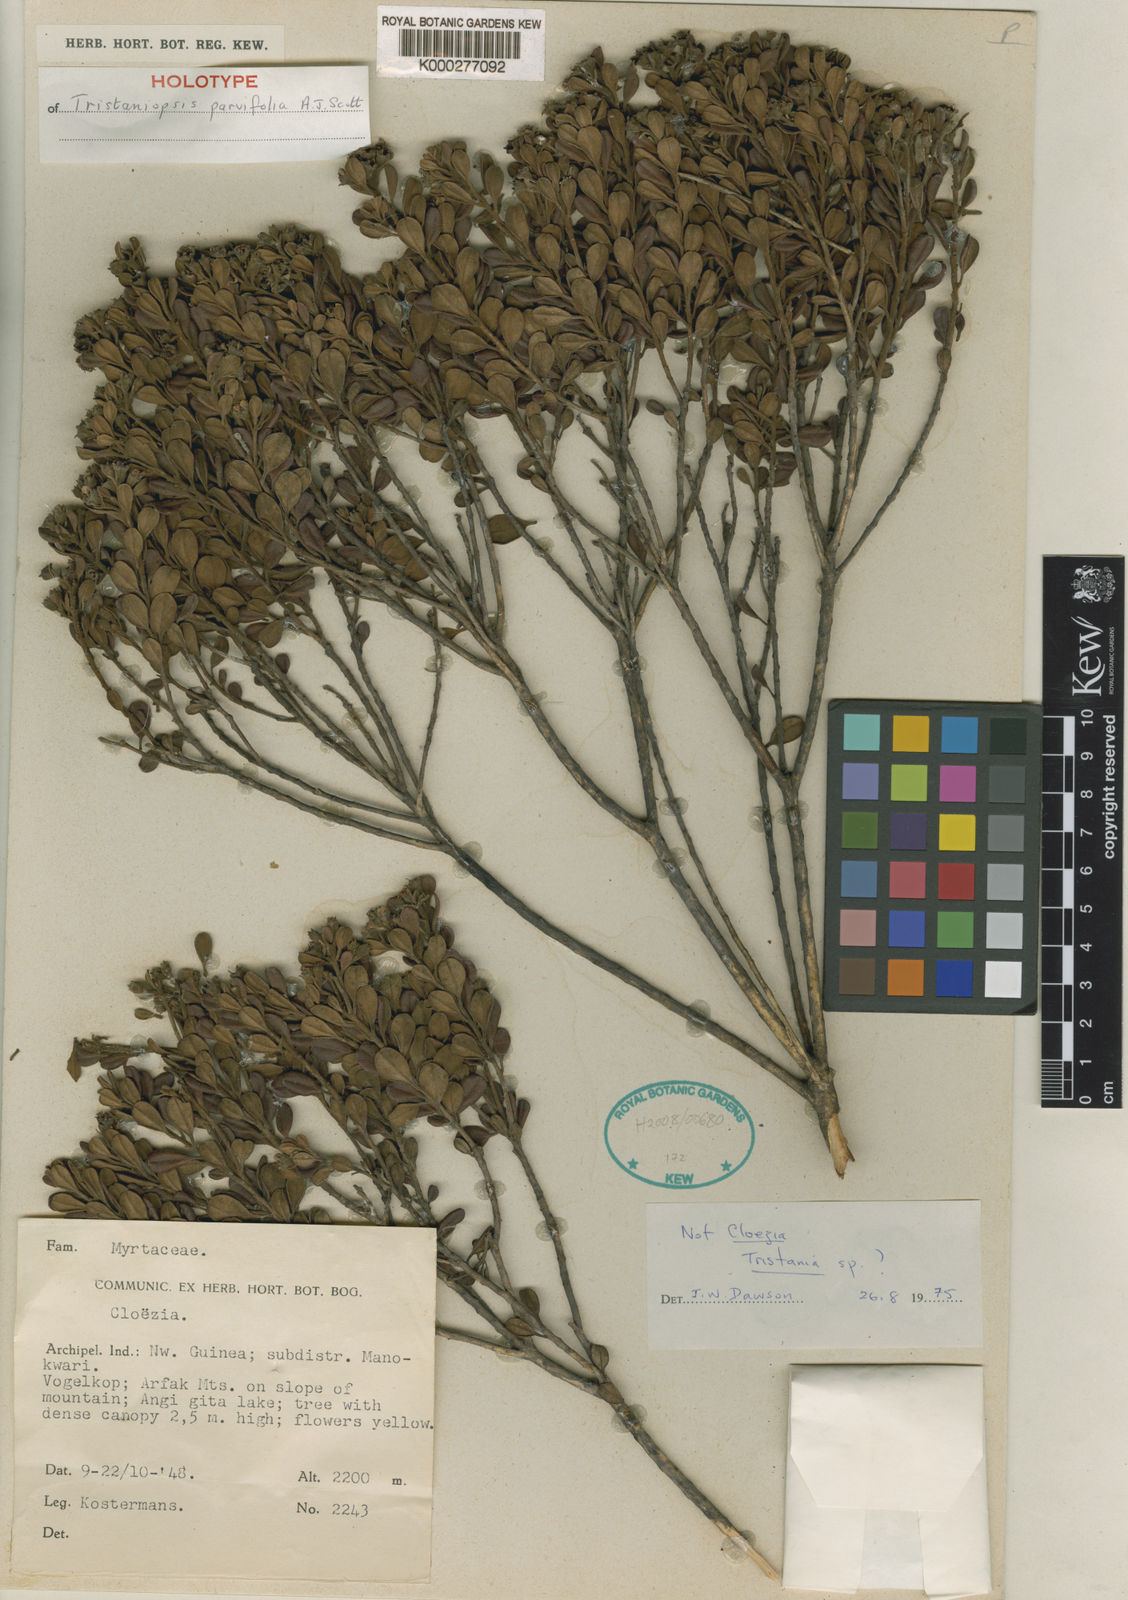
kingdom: Plantae
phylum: Tracheophyta
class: Magnoliopsida
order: Myrtales
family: Myrtaceae
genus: Tristaniopsis
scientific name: Tristaniopsis parvifolia
